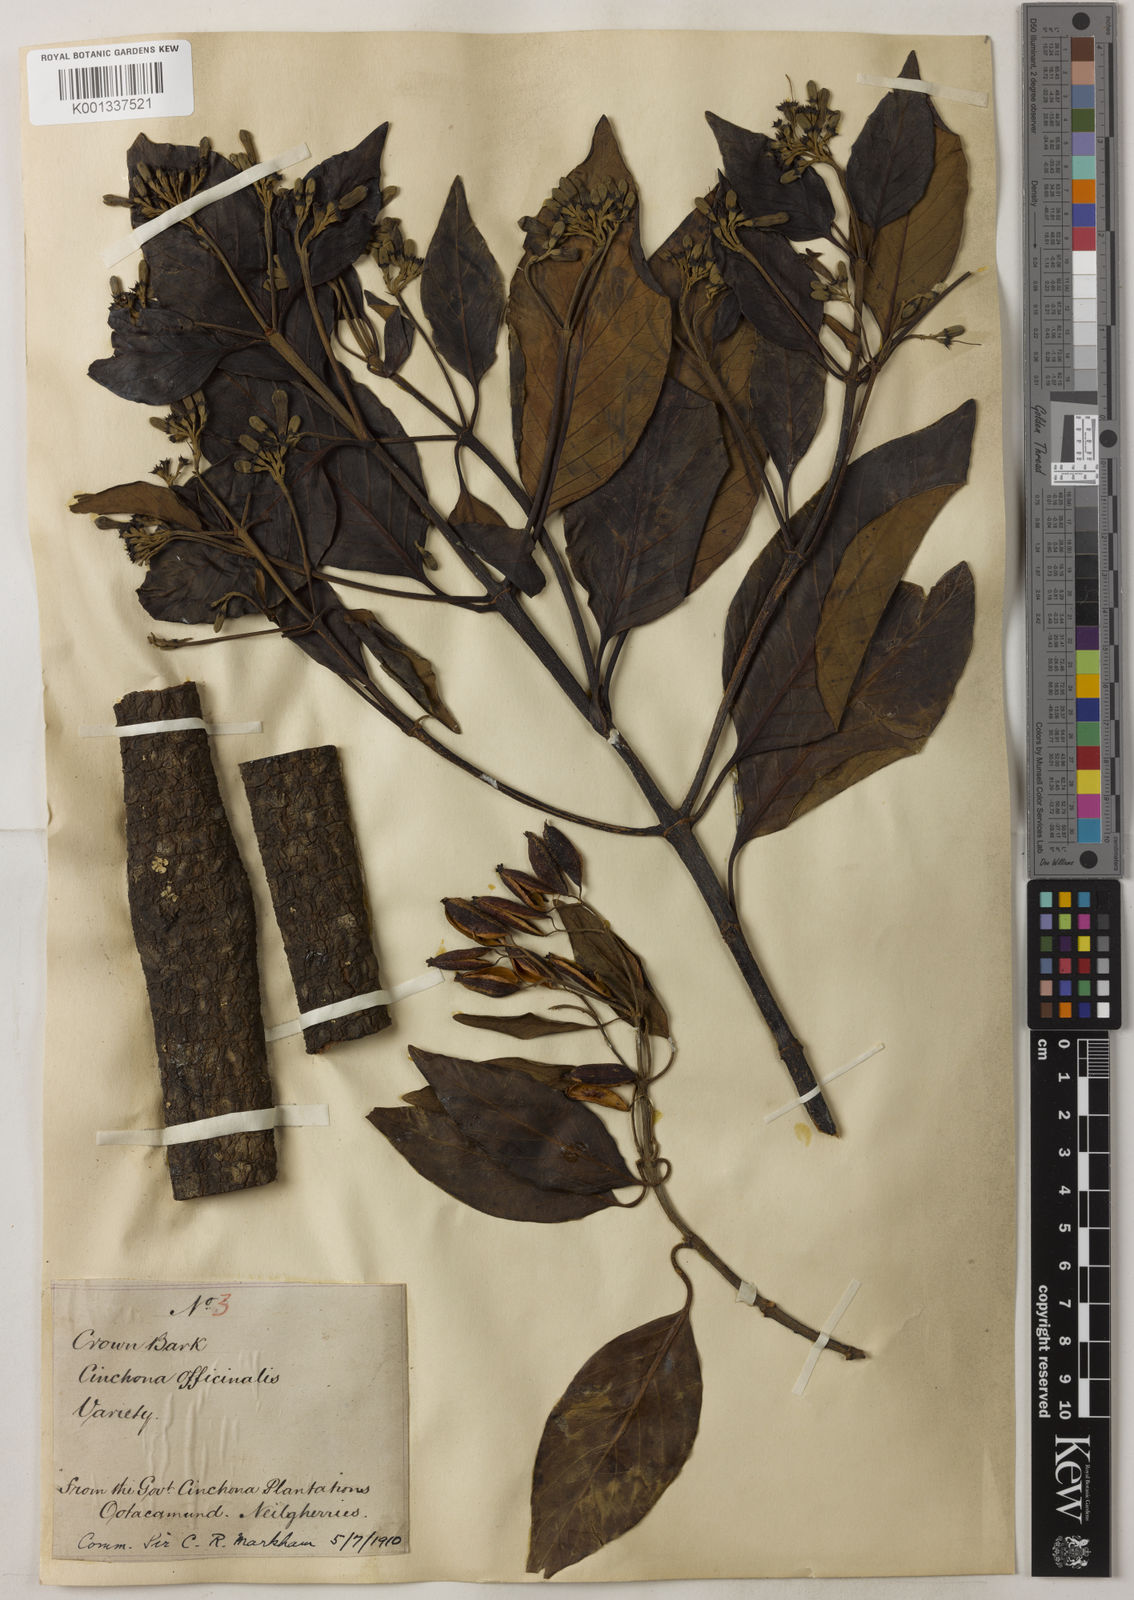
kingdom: Plantae
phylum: Tracheophyta
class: Magnoliopsida
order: Gentianales
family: Rubiaceae
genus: Cinchona
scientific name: Cinchona officinalis
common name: Lojabark
